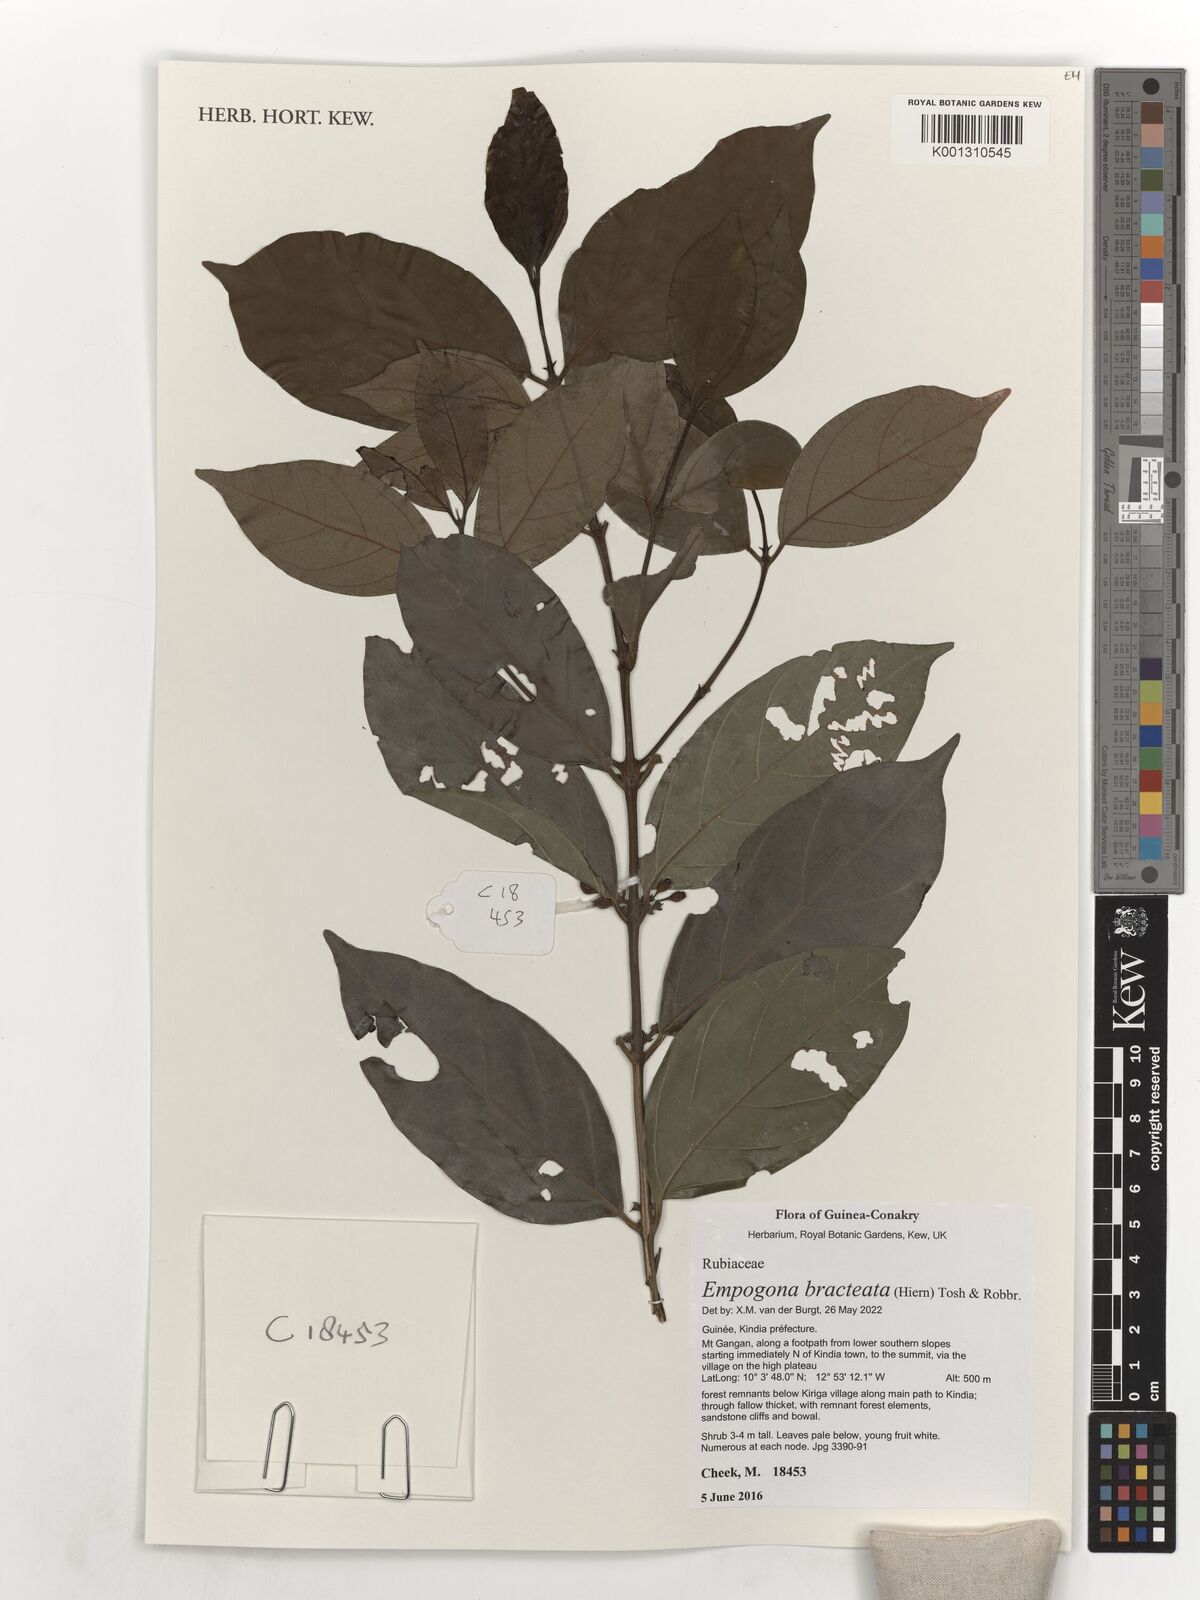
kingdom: Plantae
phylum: Tracheophyta
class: Magnoliopsida
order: Gentianales
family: Rubiaceae
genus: Empogona
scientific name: Empogona bracteata
